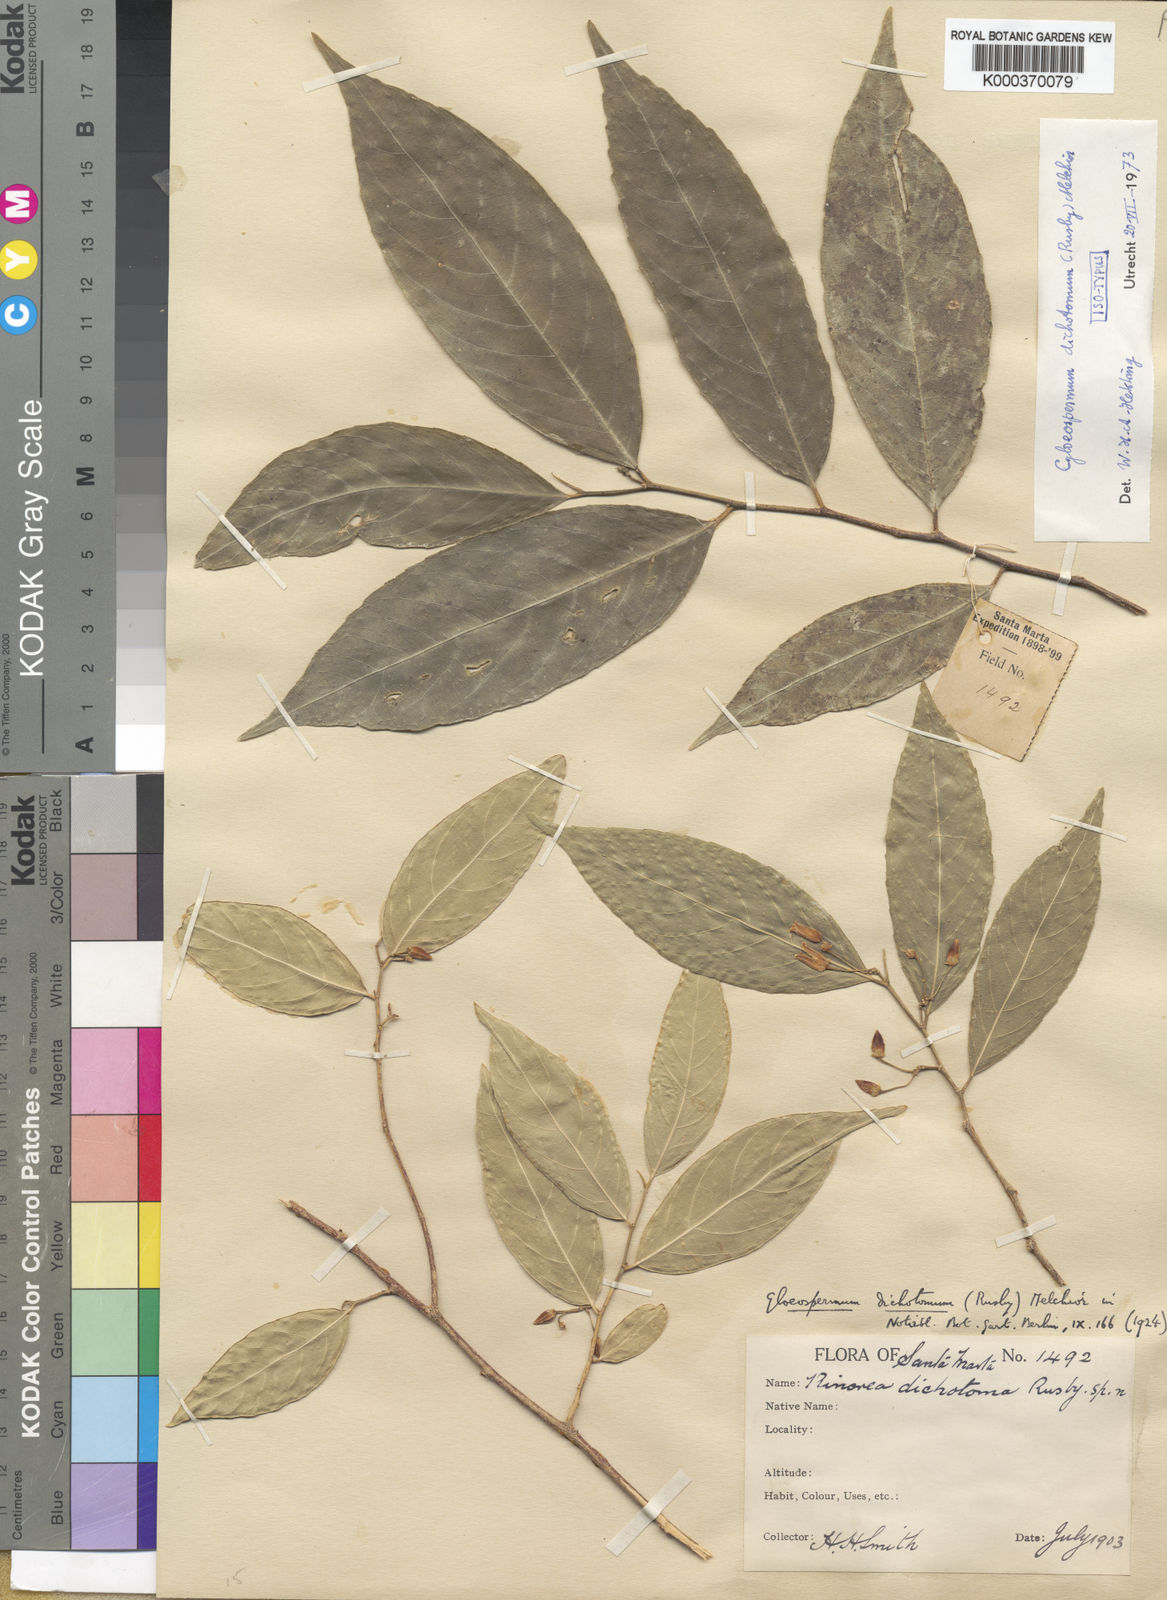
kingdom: Plantae
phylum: Tracheophyta
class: Magnoliopsida
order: Malpighiales
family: Violaceae
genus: Gloeospermum
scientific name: Gloeospermum dichotomum
